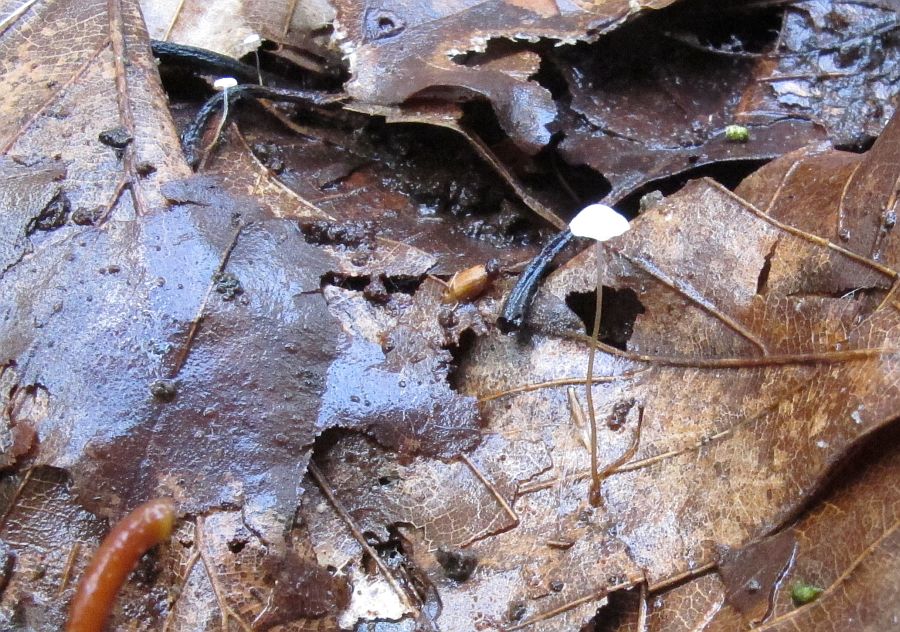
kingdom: Fungi
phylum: Basidiomycota
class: Agaricomycetes
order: Agaricales
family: Physalacriaceae
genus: Rhizomarasmius
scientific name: Rhizomarasmius setosus
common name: bøgeblads-bruskhat
